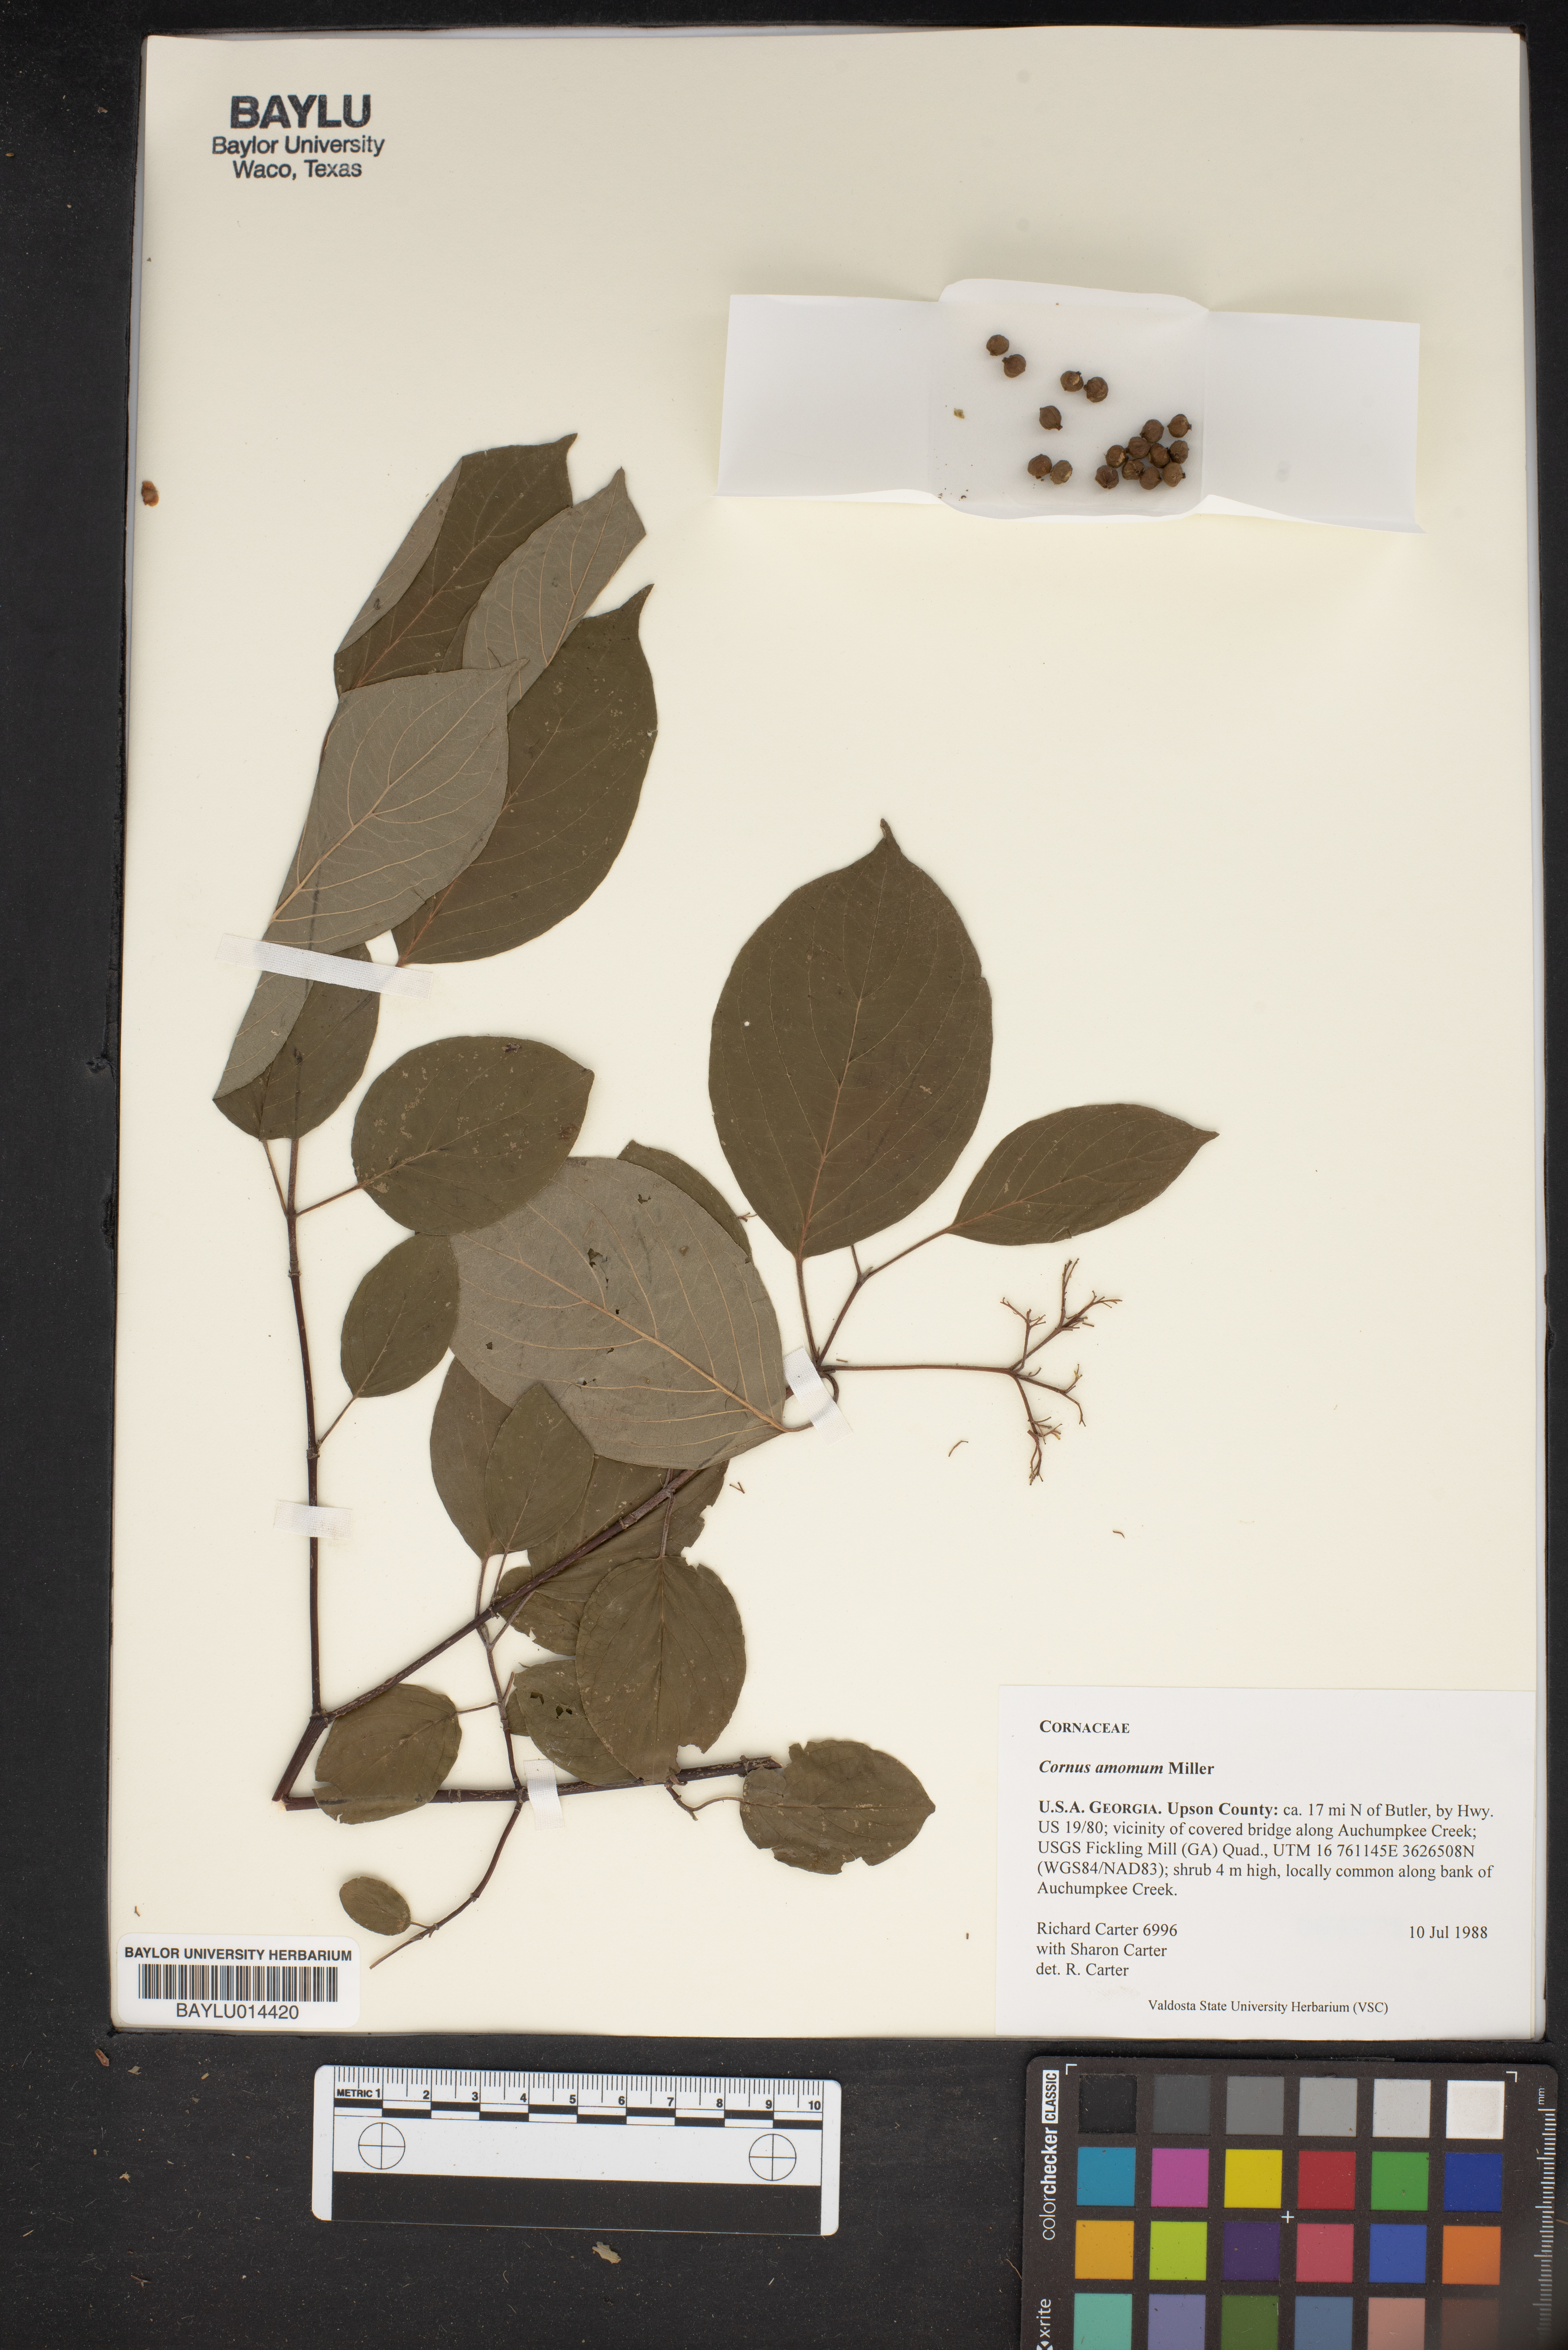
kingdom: Plantae
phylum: Tracheophyta
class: Magnoliopsida
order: Cornales
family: Cornaceae
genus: Cornus
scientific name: Cornus amomum
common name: Silky dogwood
